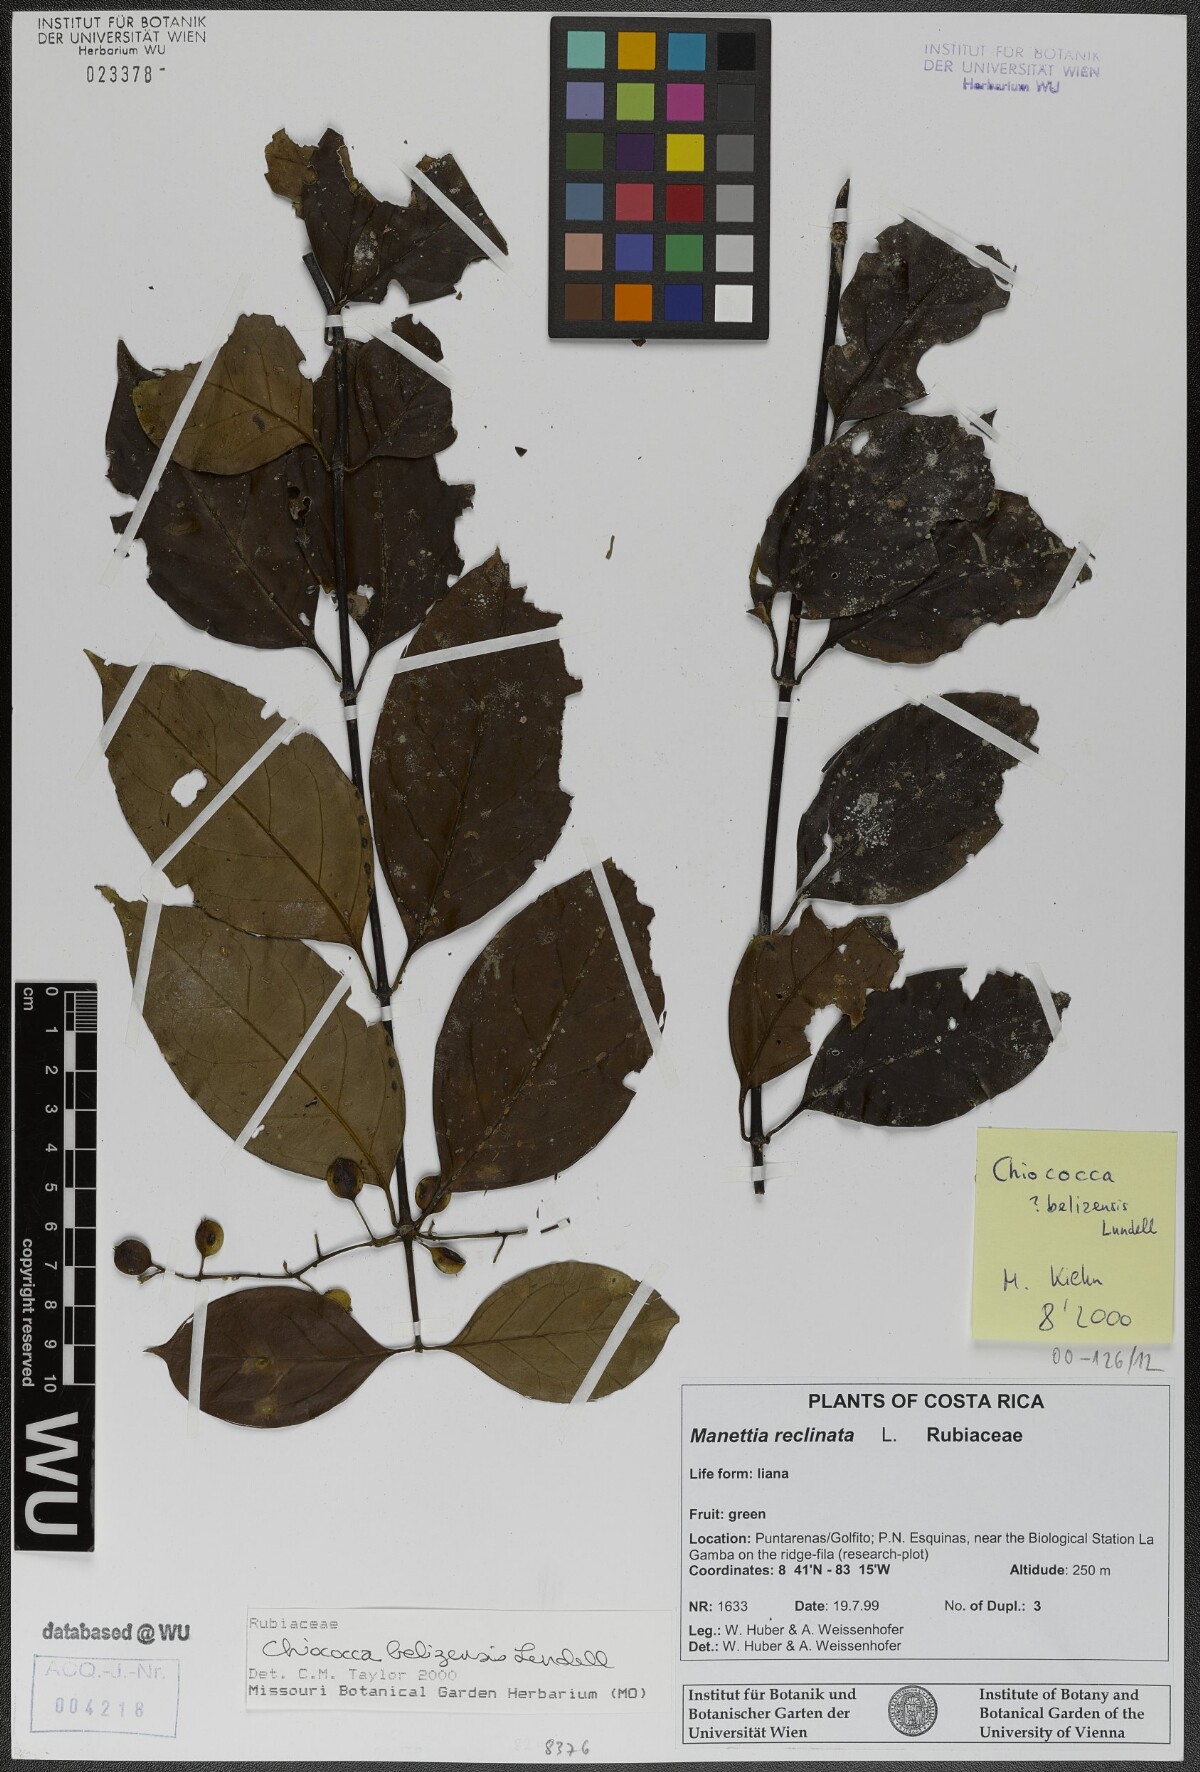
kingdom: Plantae
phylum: Tracheophyta
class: Magnoliopsida
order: Gentianales
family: Rubiaceae
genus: Chiococca
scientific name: Chiococca belizensis
